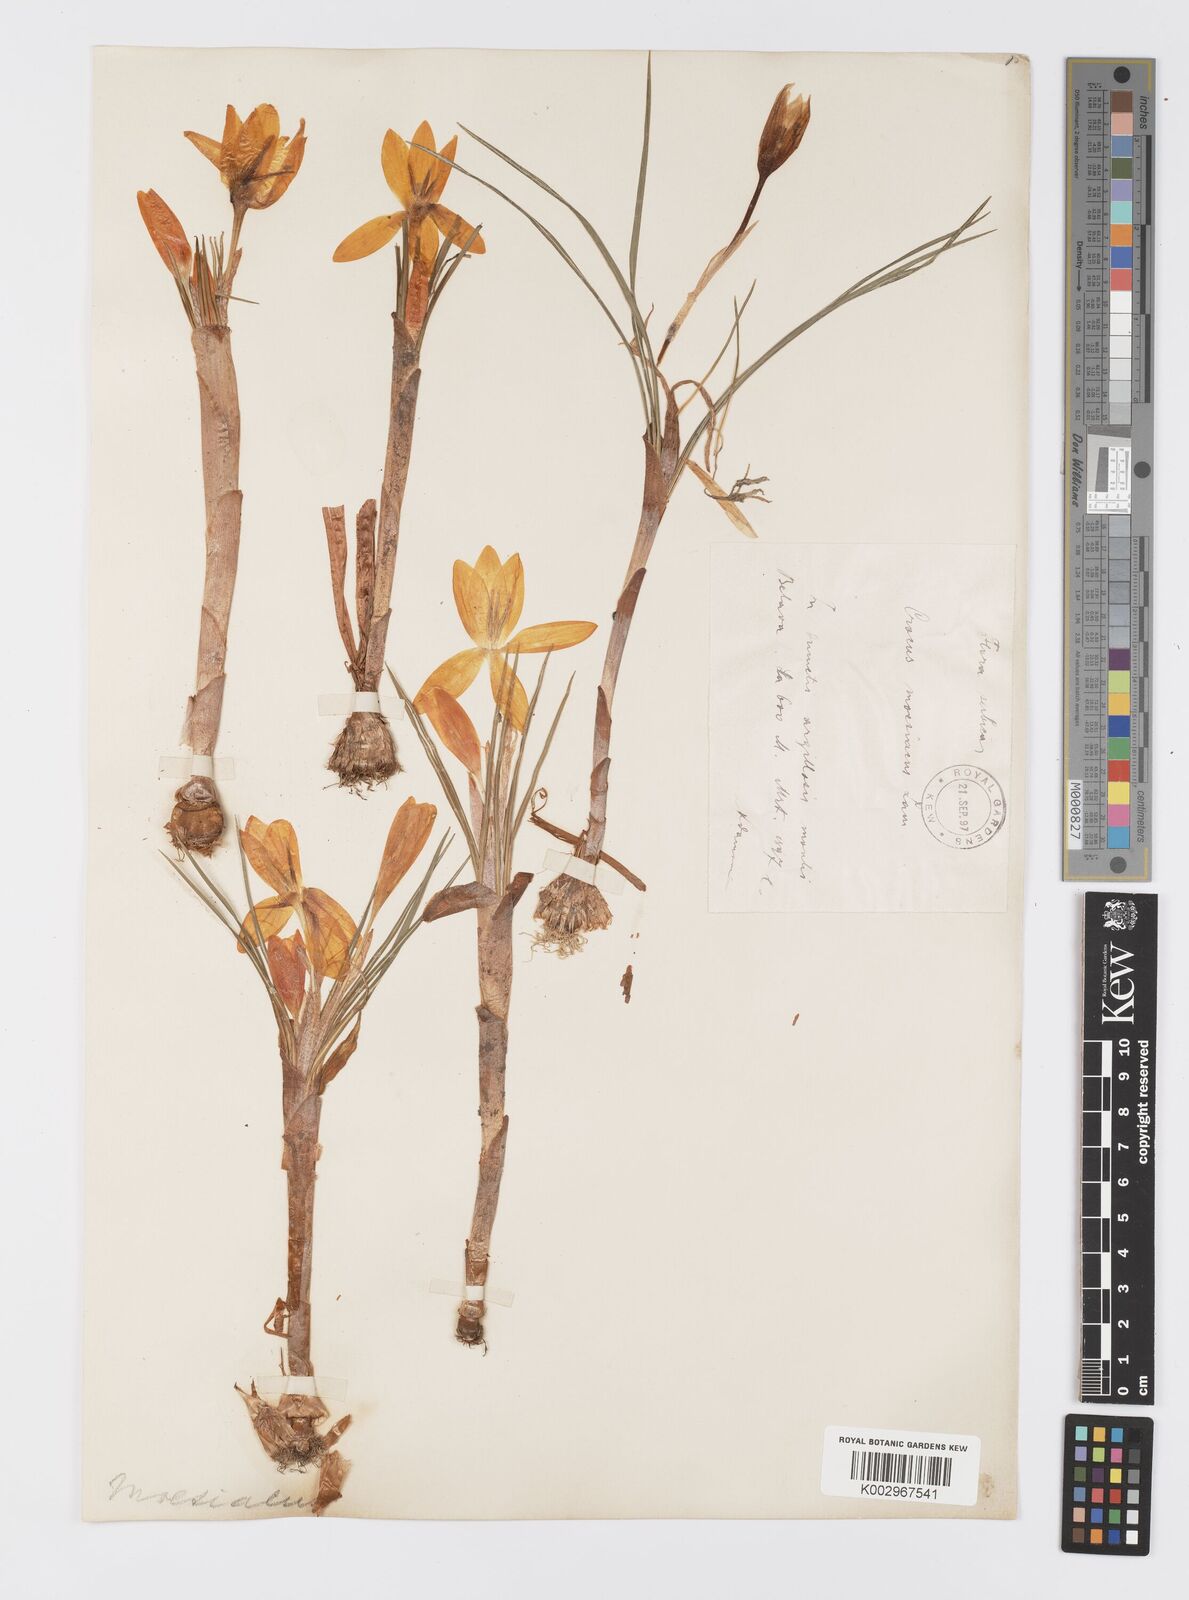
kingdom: Plantae
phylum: Tracheophyta
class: Liliopsida
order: Asparagales
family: Iridaceae
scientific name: Iridaceae
